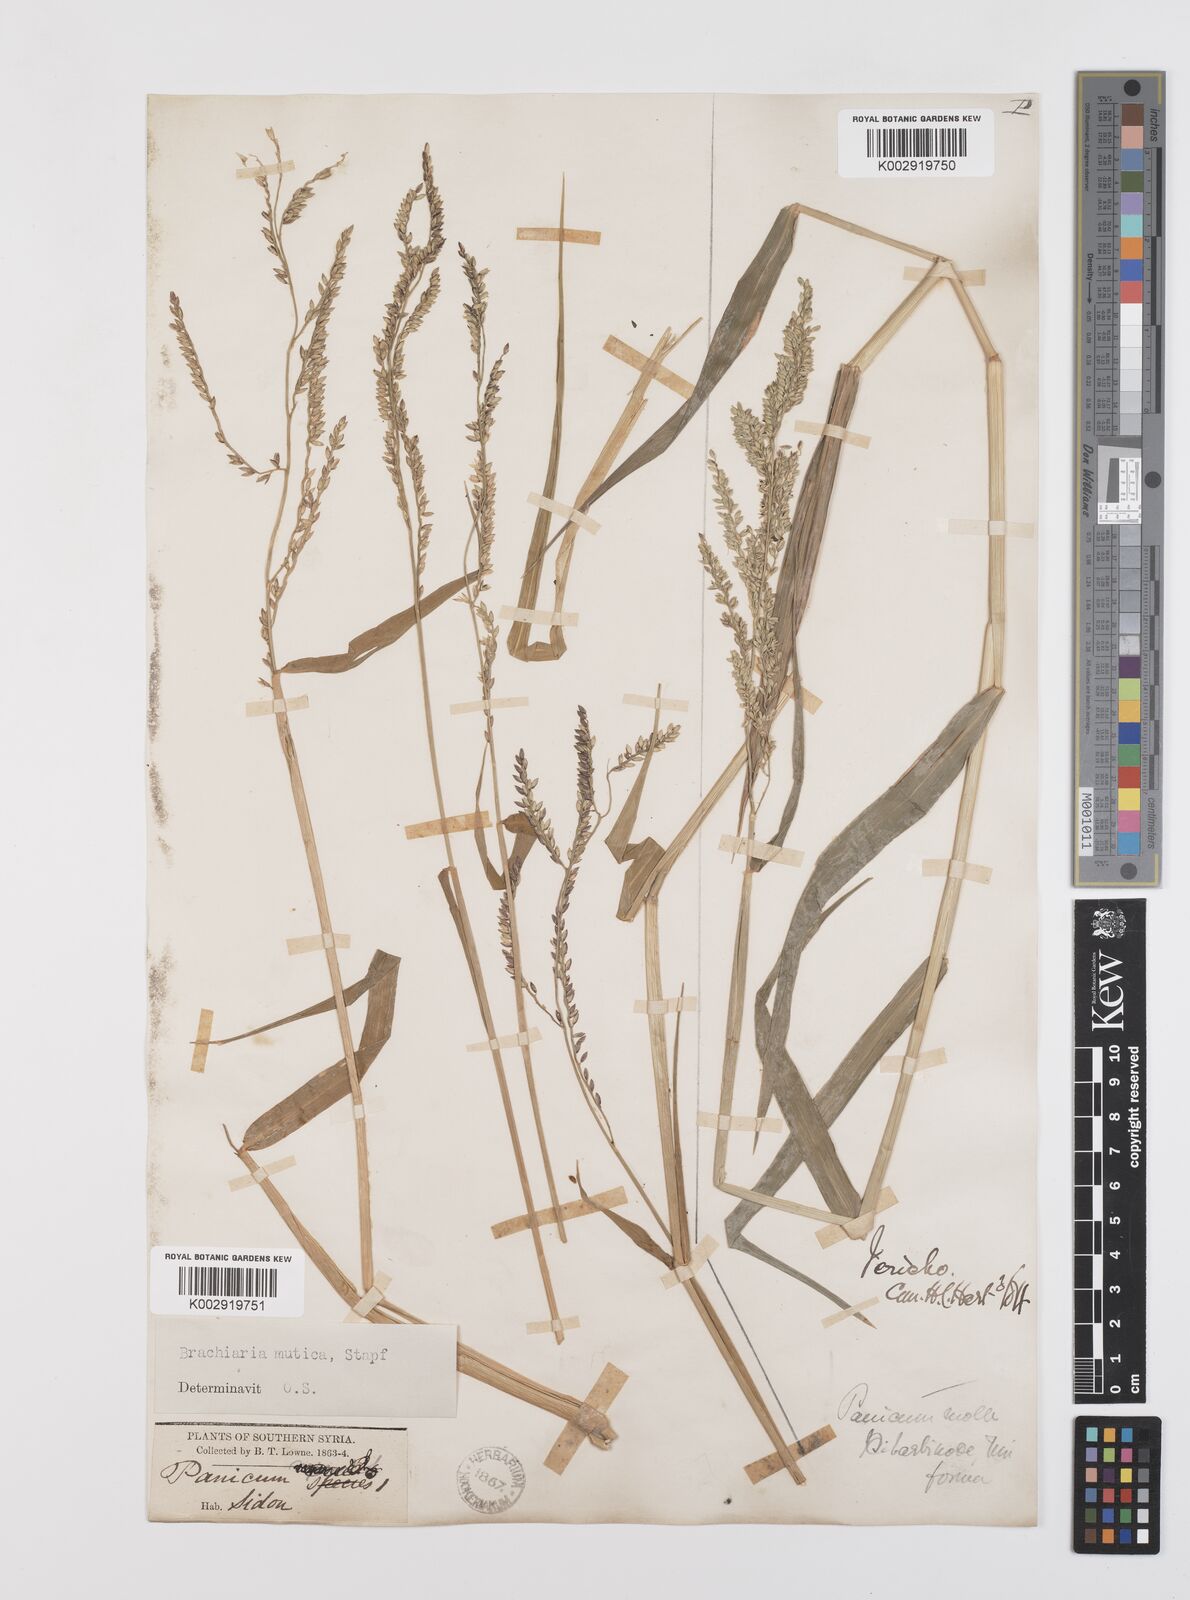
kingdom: Plantae
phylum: Tracheophyta
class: Liliopsida
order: Poales
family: Poaceae
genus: Urochloa
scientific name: Urochloa mutica
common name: Para grass
